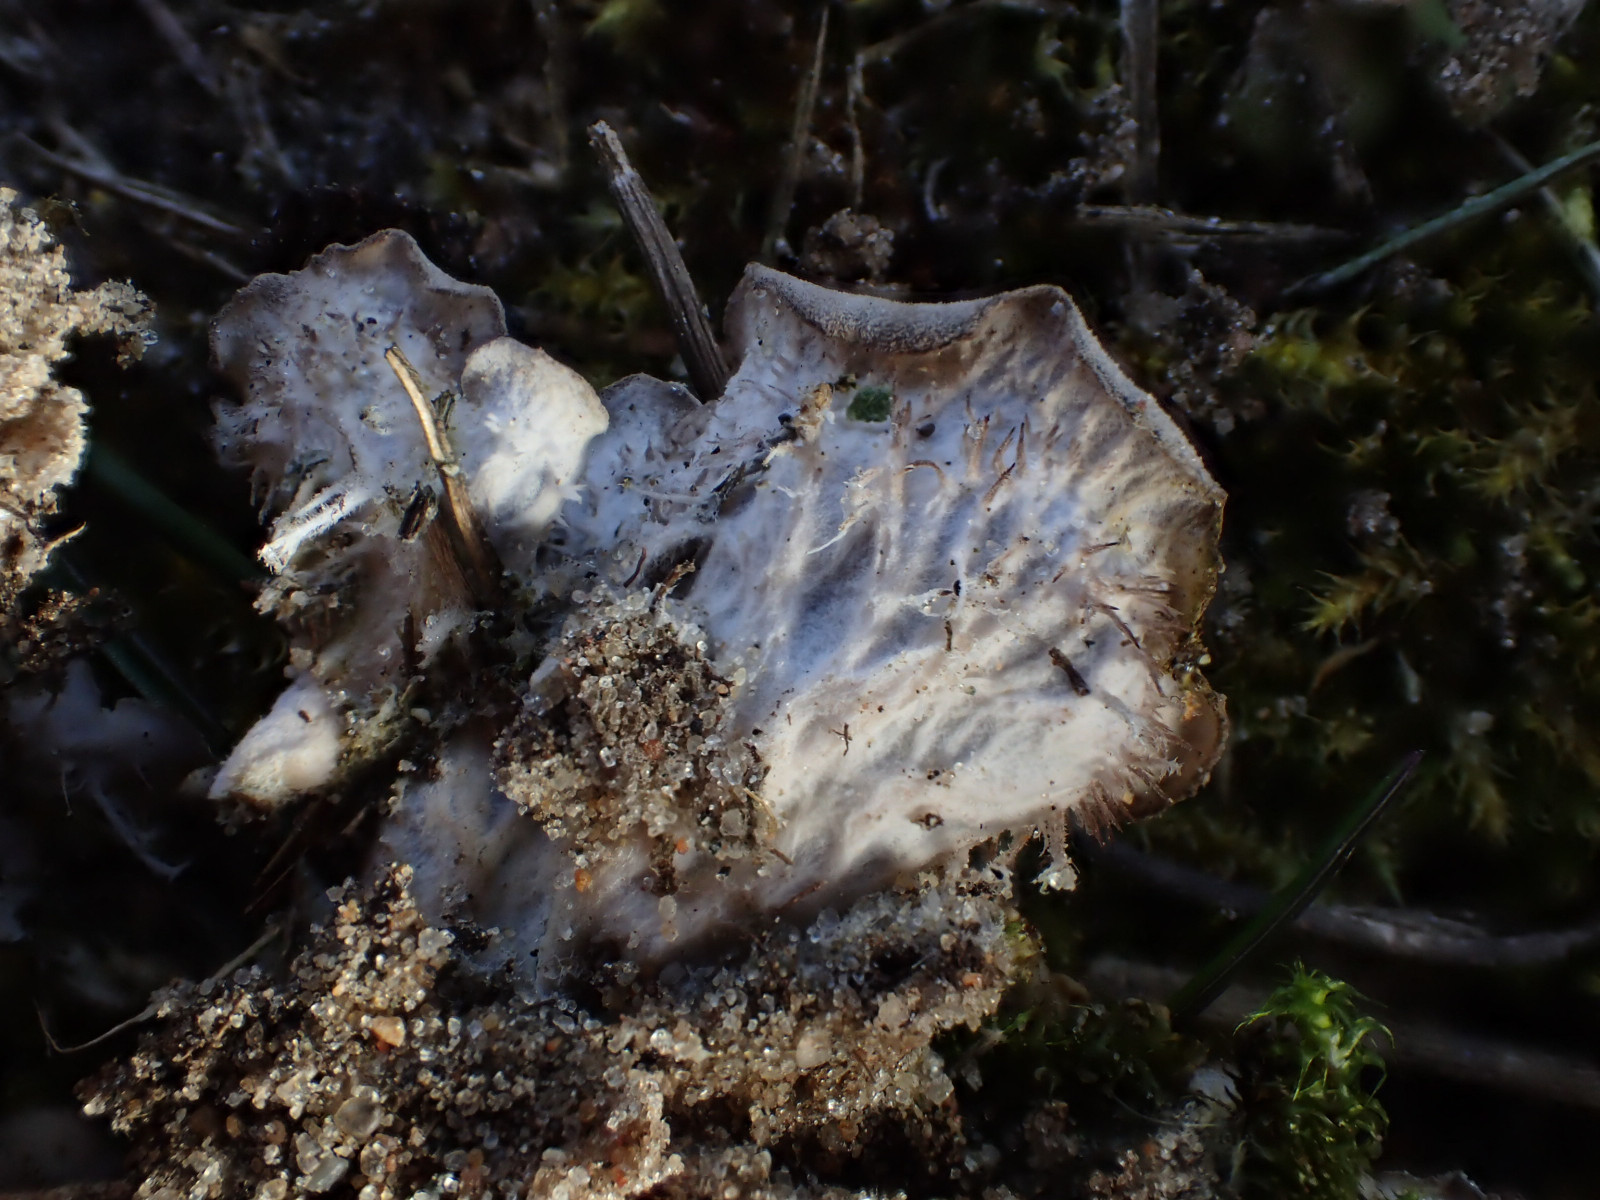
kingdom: Fungi
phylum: Ascomycota
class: Lecanoromycetes
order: Peltigerales
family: Peltigeraceae
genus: Peltigera
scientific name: Peltigera rufescens
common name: brun skjoldlav
